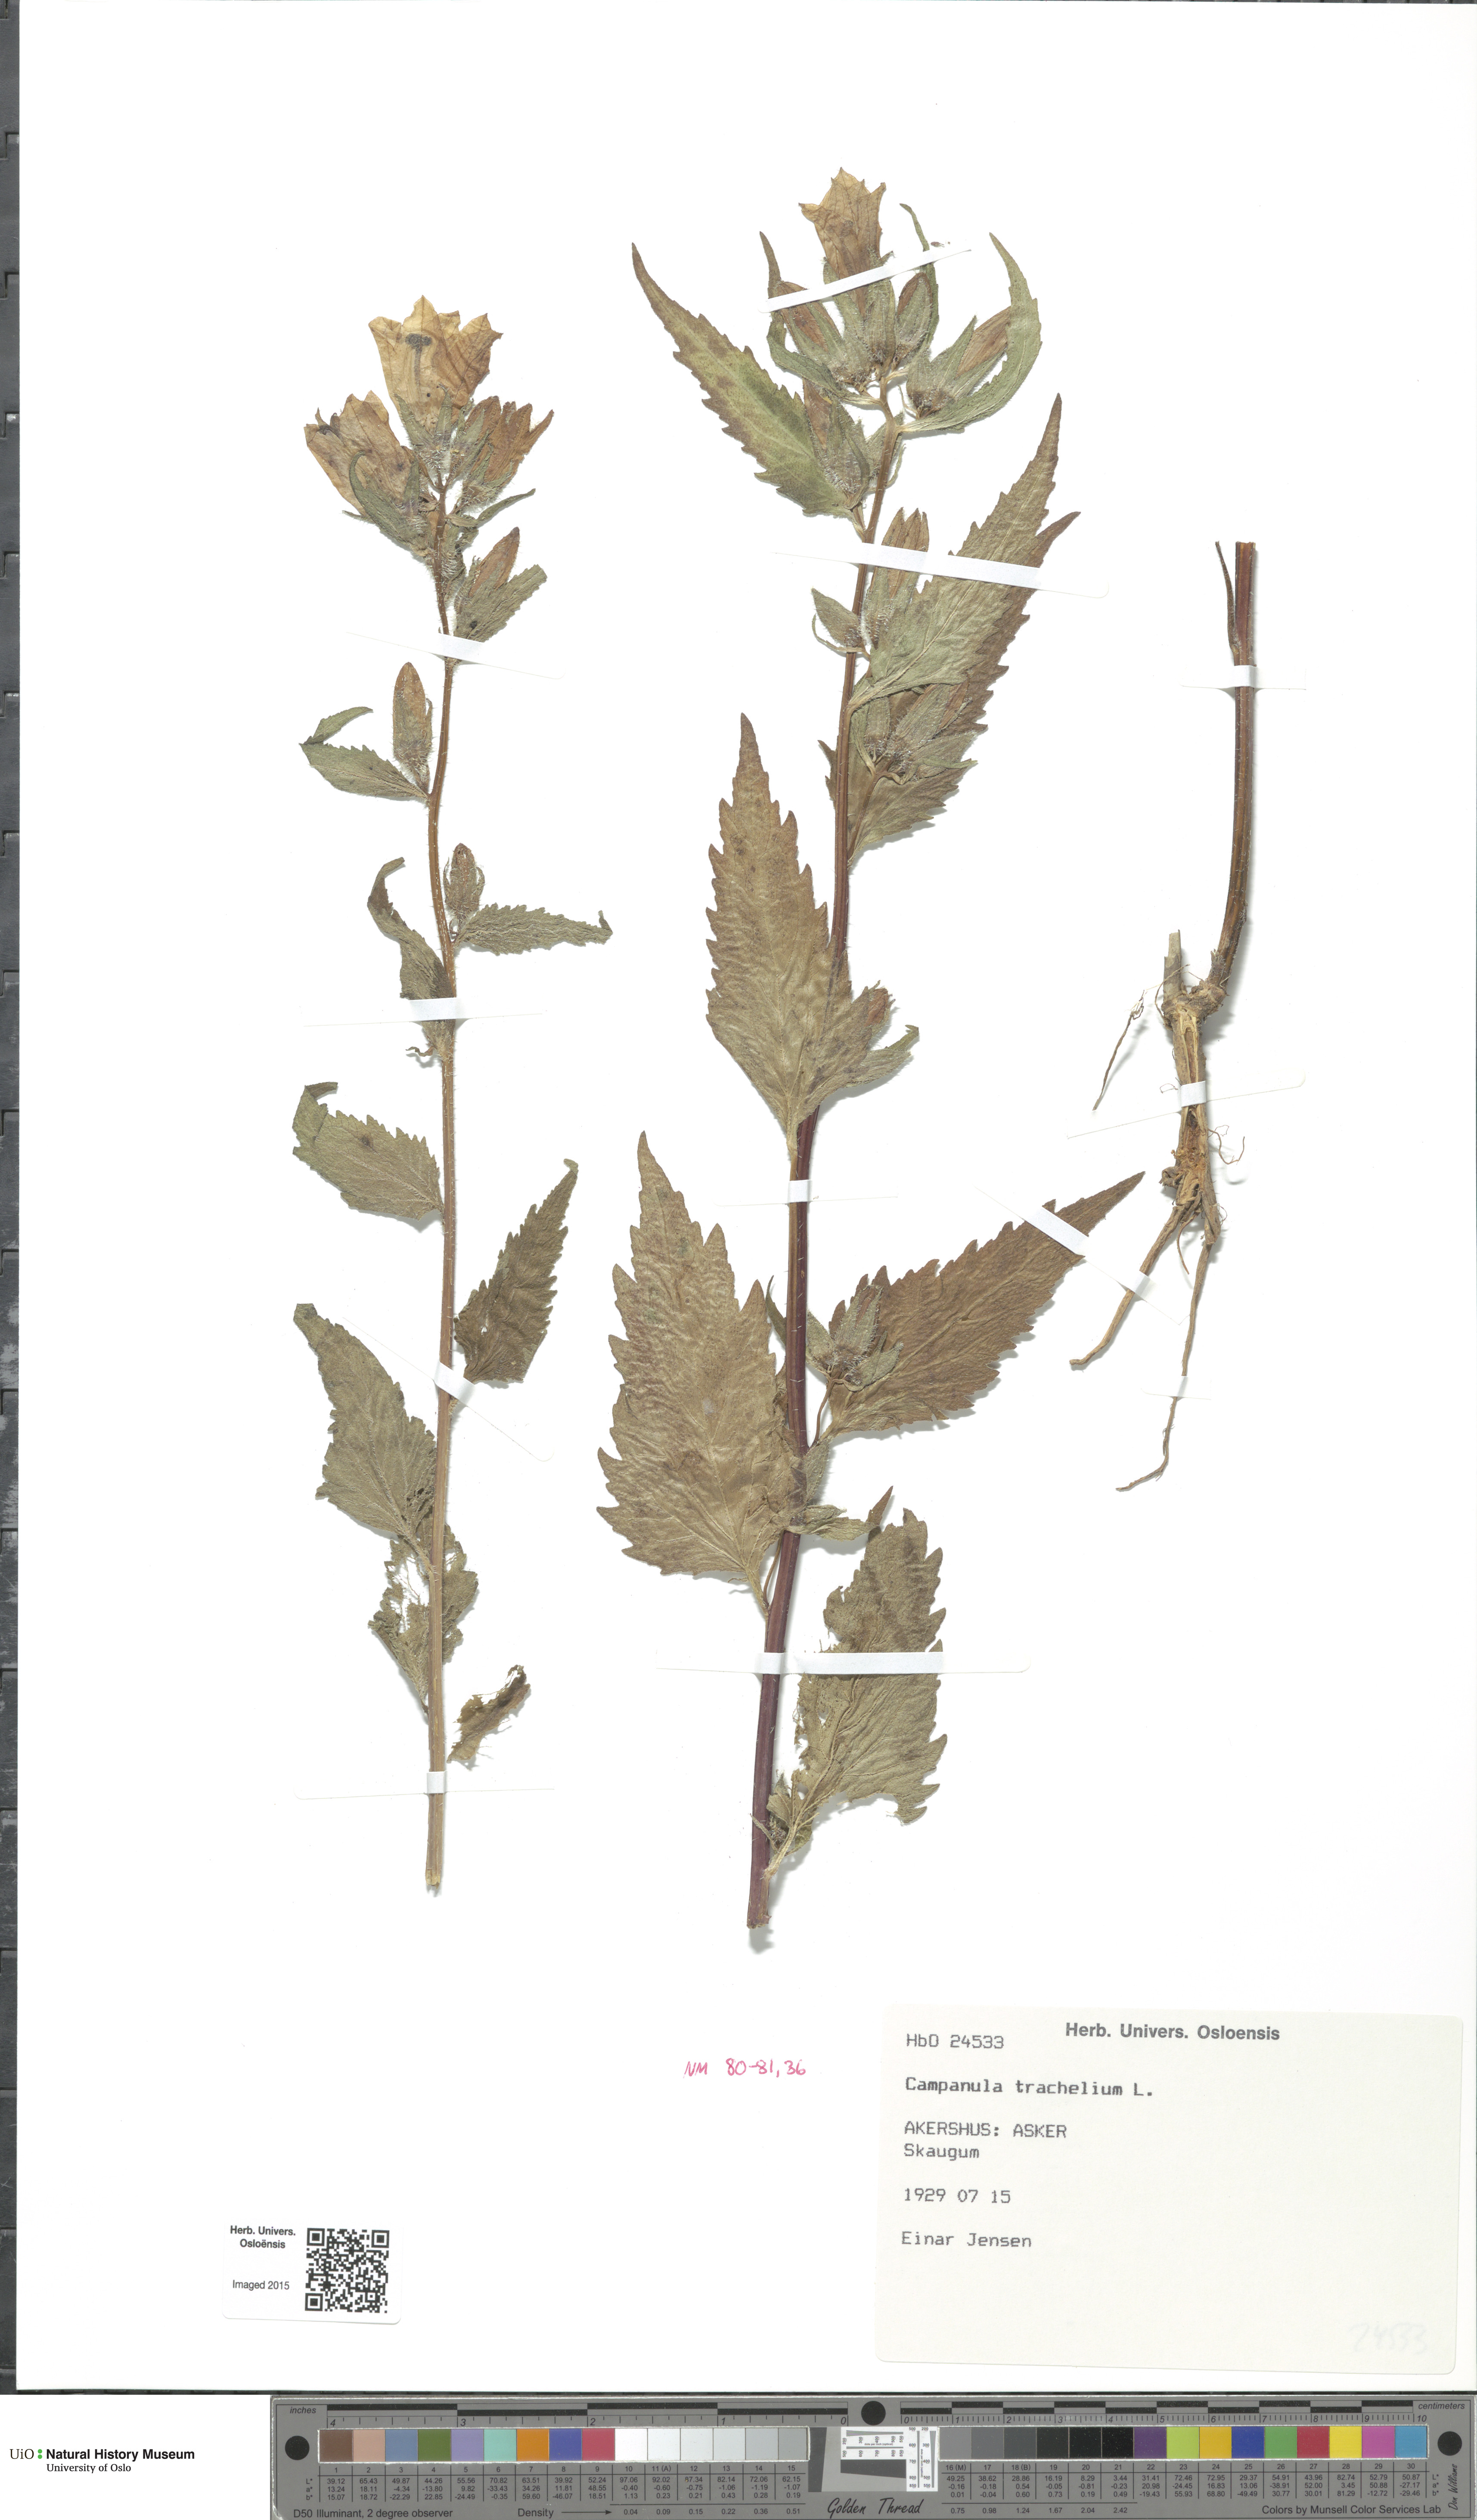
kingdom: Plantae
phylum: Tracheophyta
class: Magnoliopsida
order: Asterales
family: Campanulaceae
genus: Campanula
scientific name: Campanula trachelium
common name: Nettle-leaved bellflower
